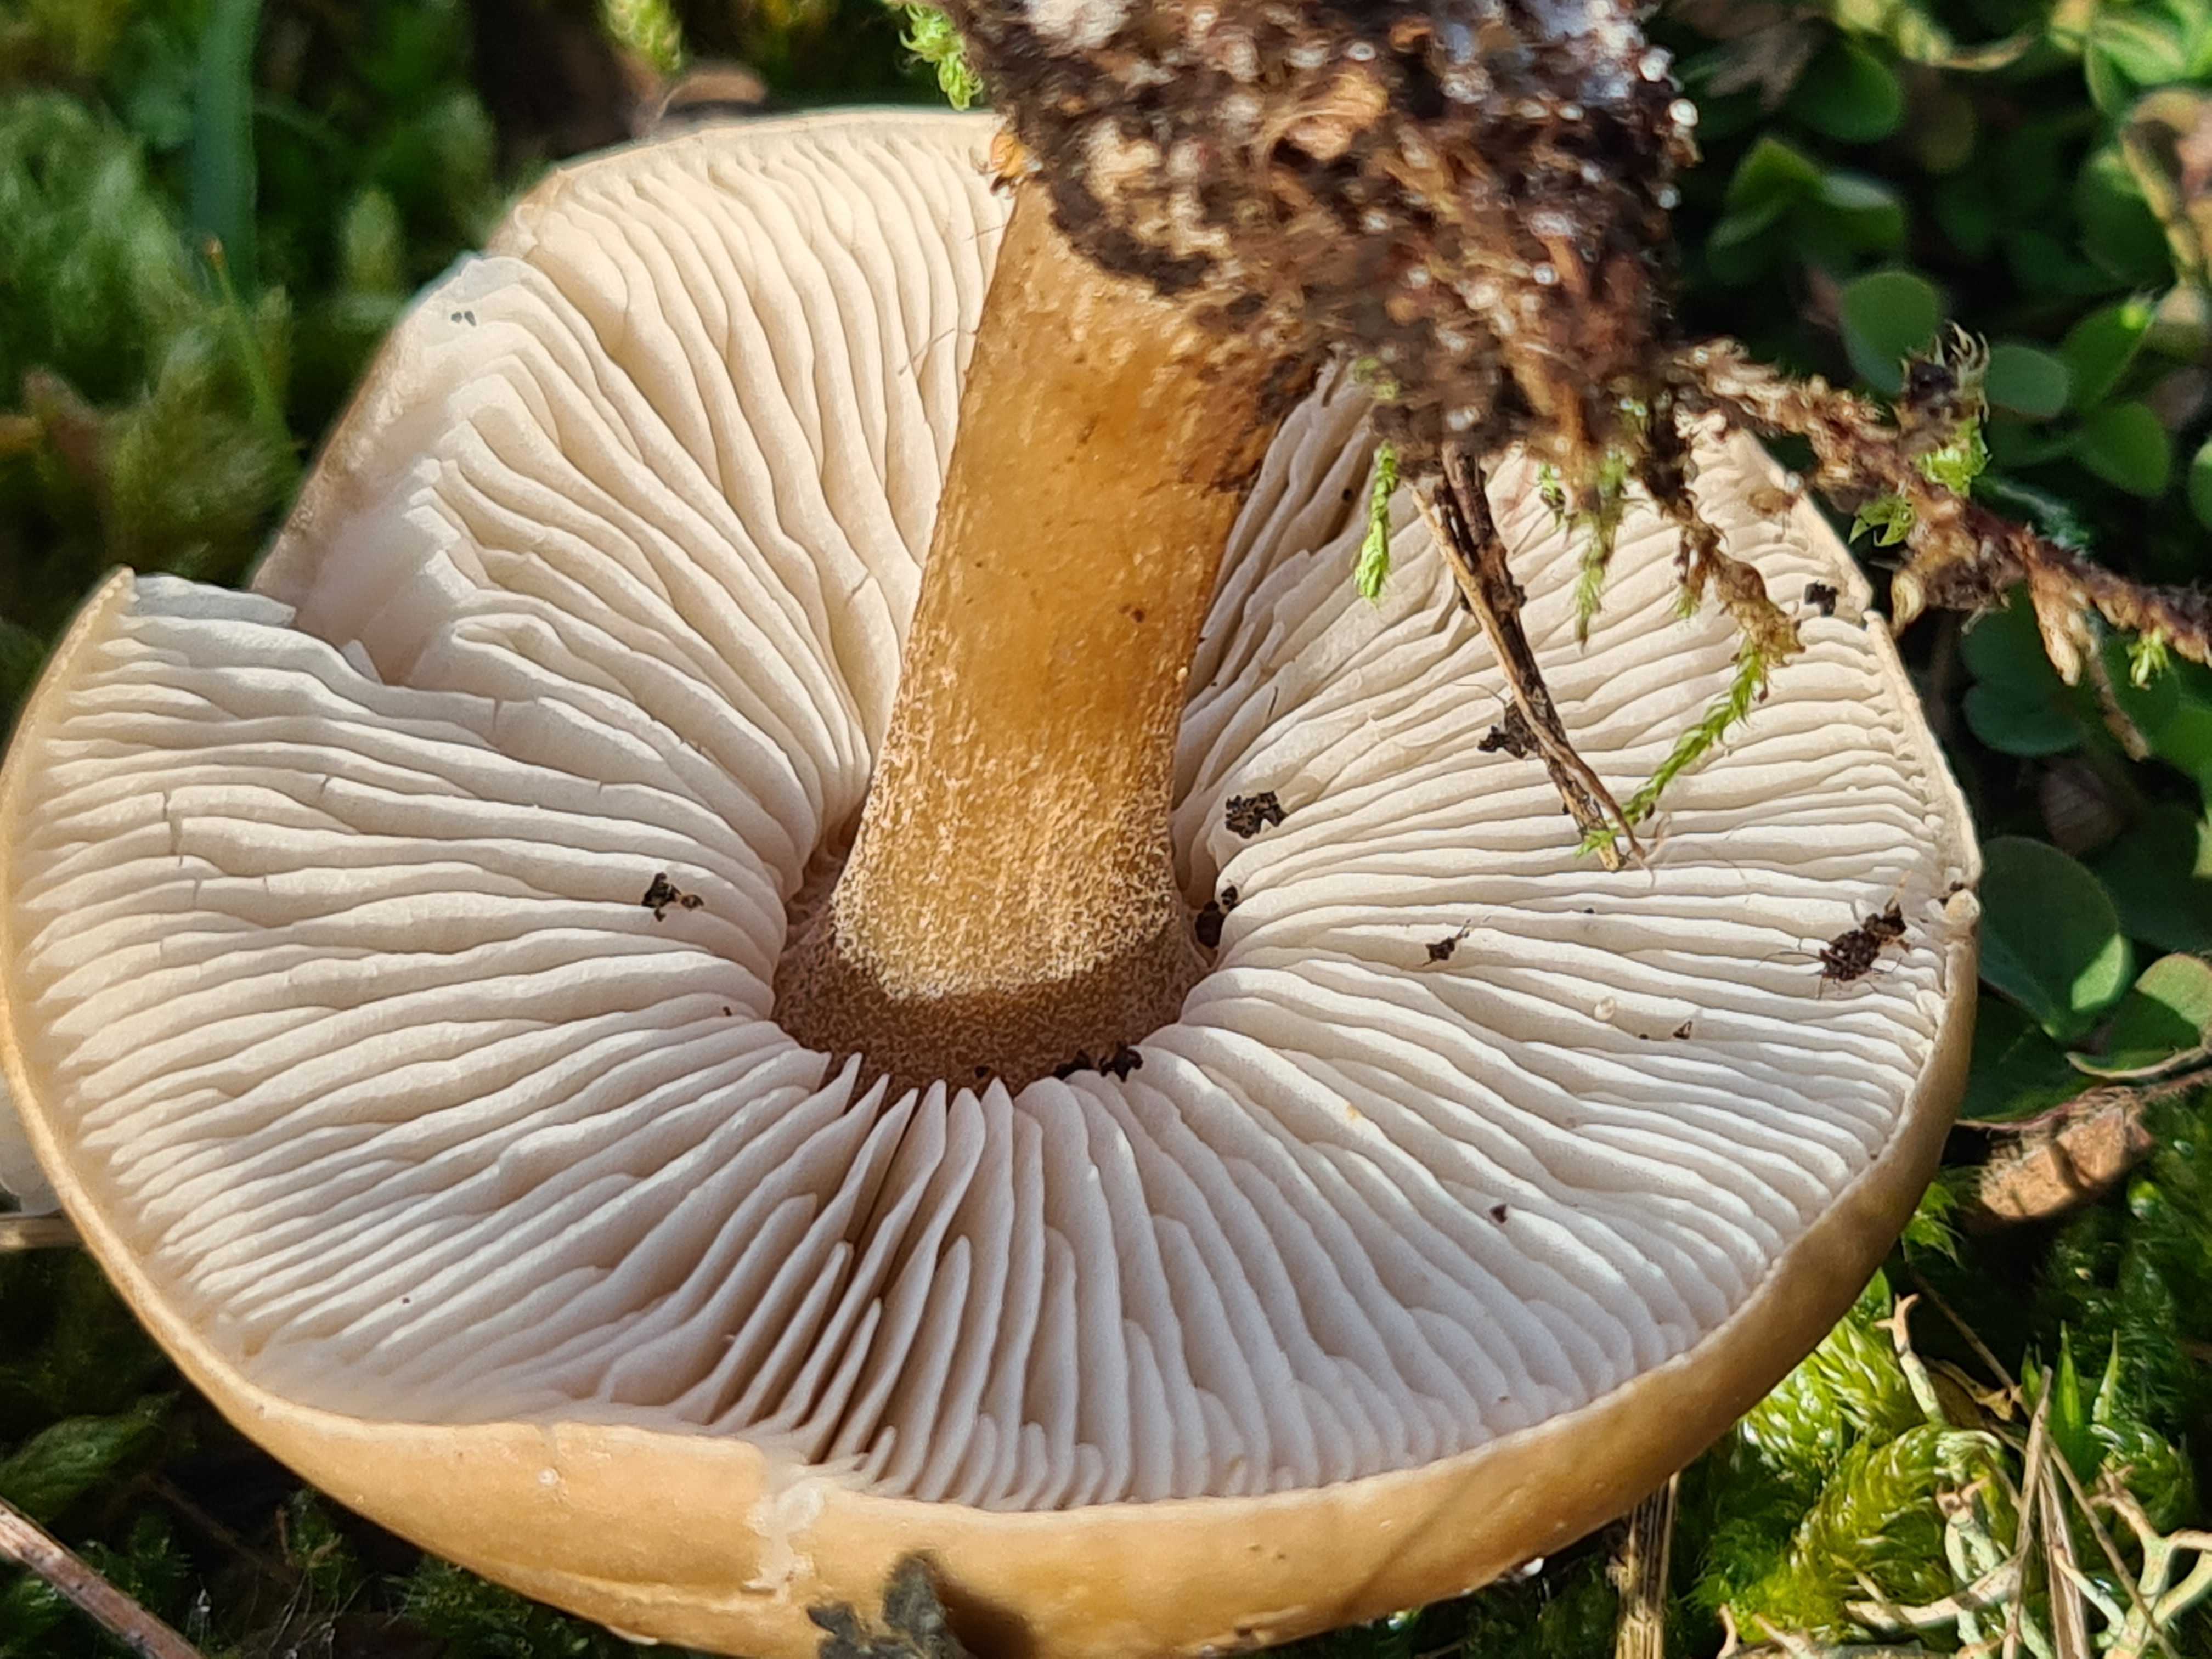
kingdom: Fungi
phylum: Basidiomycota
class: Agaricomycetes
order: Agaricales
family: Tricholomataceae
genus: Melanoleuca
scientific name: Melanoleuca
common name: munkehat
